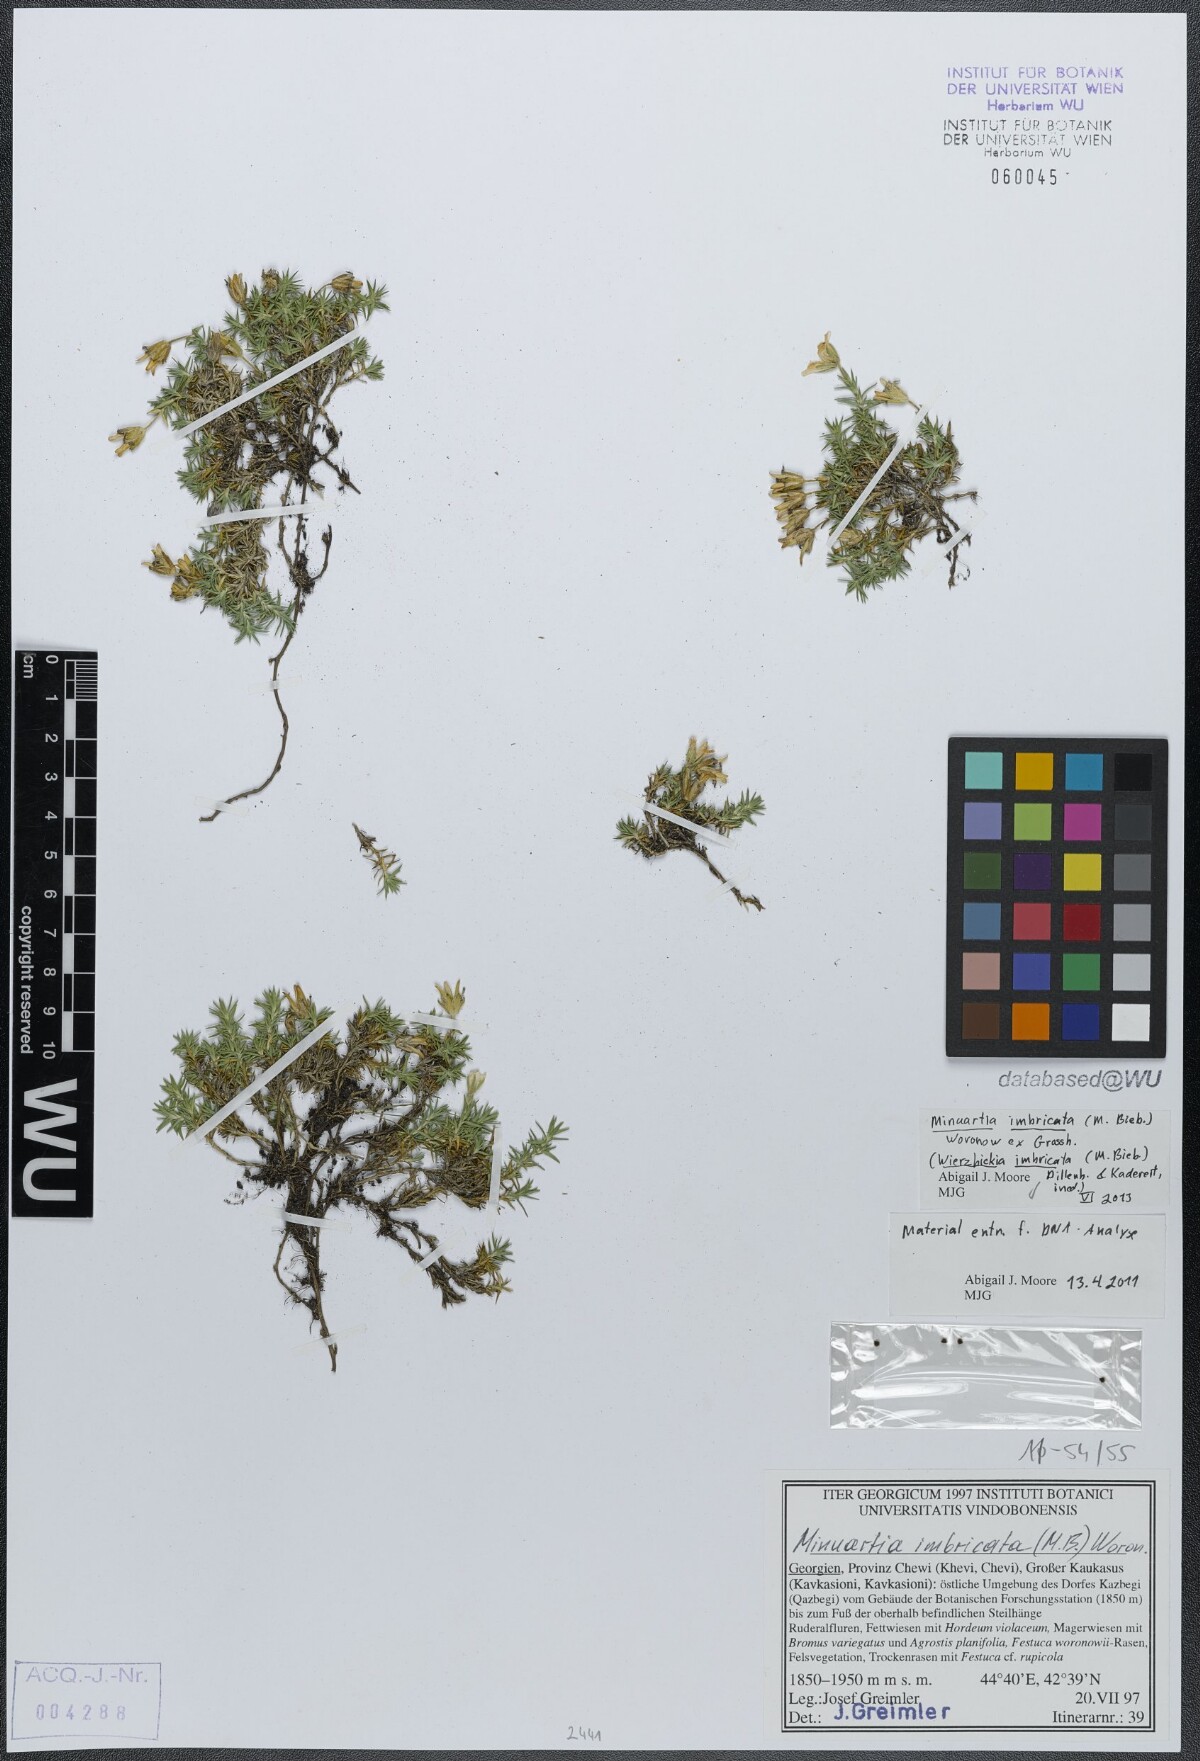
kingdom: Plantae
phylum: Tracheophyta
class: Magnoliopsida
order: Caryophyllales
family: Caryophyllaceae
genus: Pseudocherleria
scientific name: Pseudocherleria imbricata
